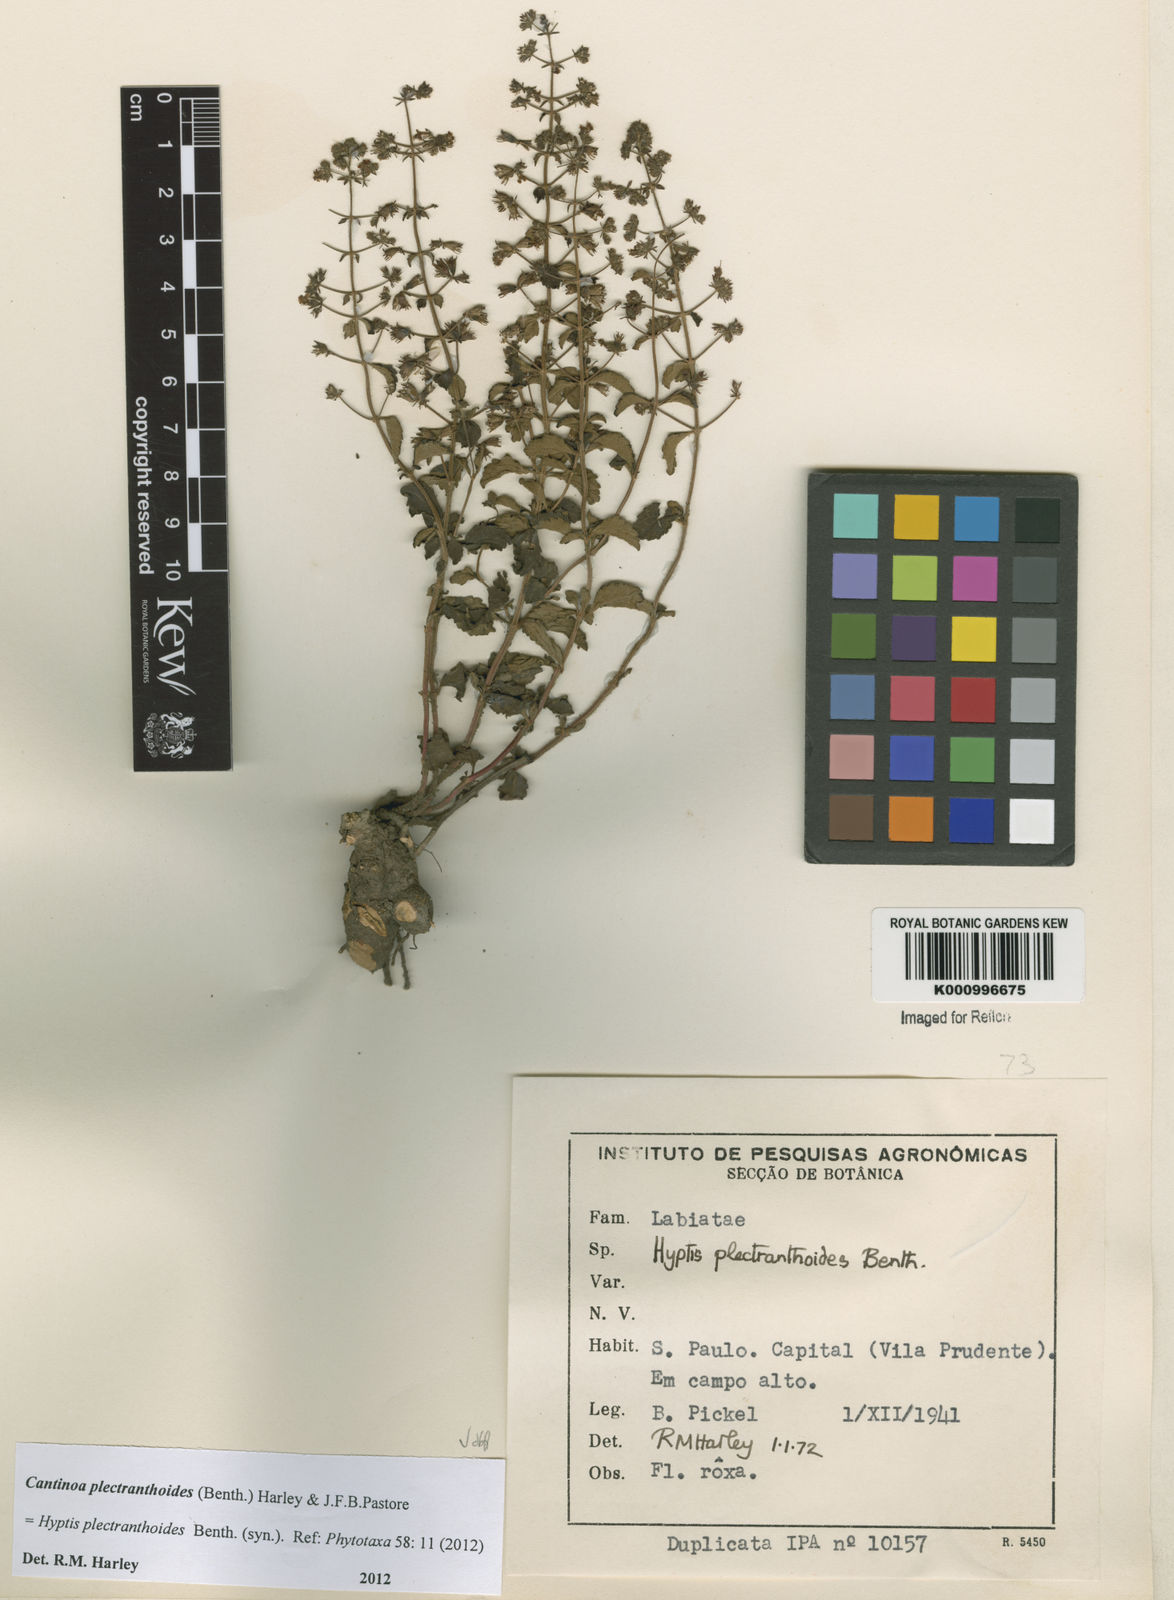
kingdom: Plantae
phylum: Tracheophyta
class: Magnoliopsida
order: Lamiales
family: Lamiaceae
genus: Cantinoa
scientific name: Cantinoa plectranthoides
